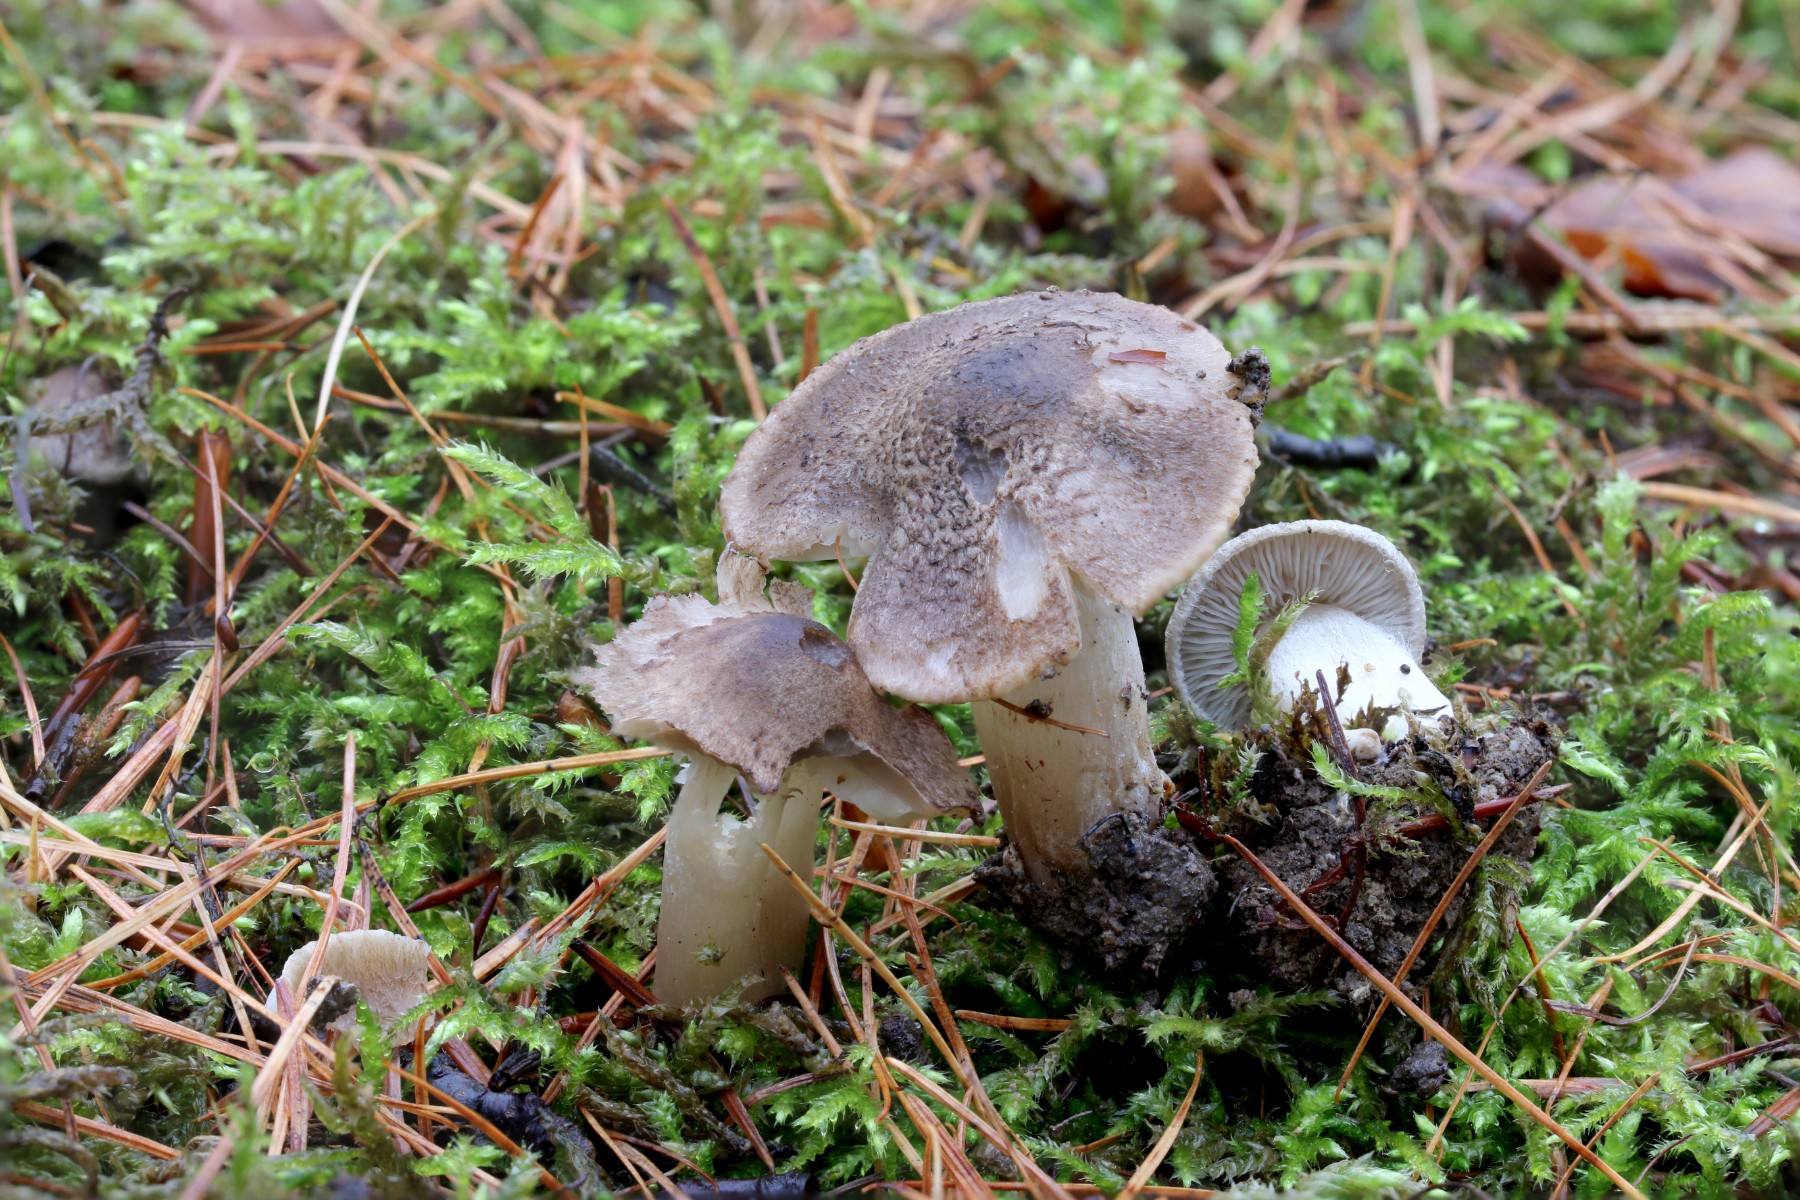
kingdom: Fungi
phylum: Basidiomycota
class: Agaricomycetes
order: Agaricales
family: Tricholomataceae
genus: Tricholoma
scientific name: Tricholoma scalpturatum
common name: gulplettet ridderhat
